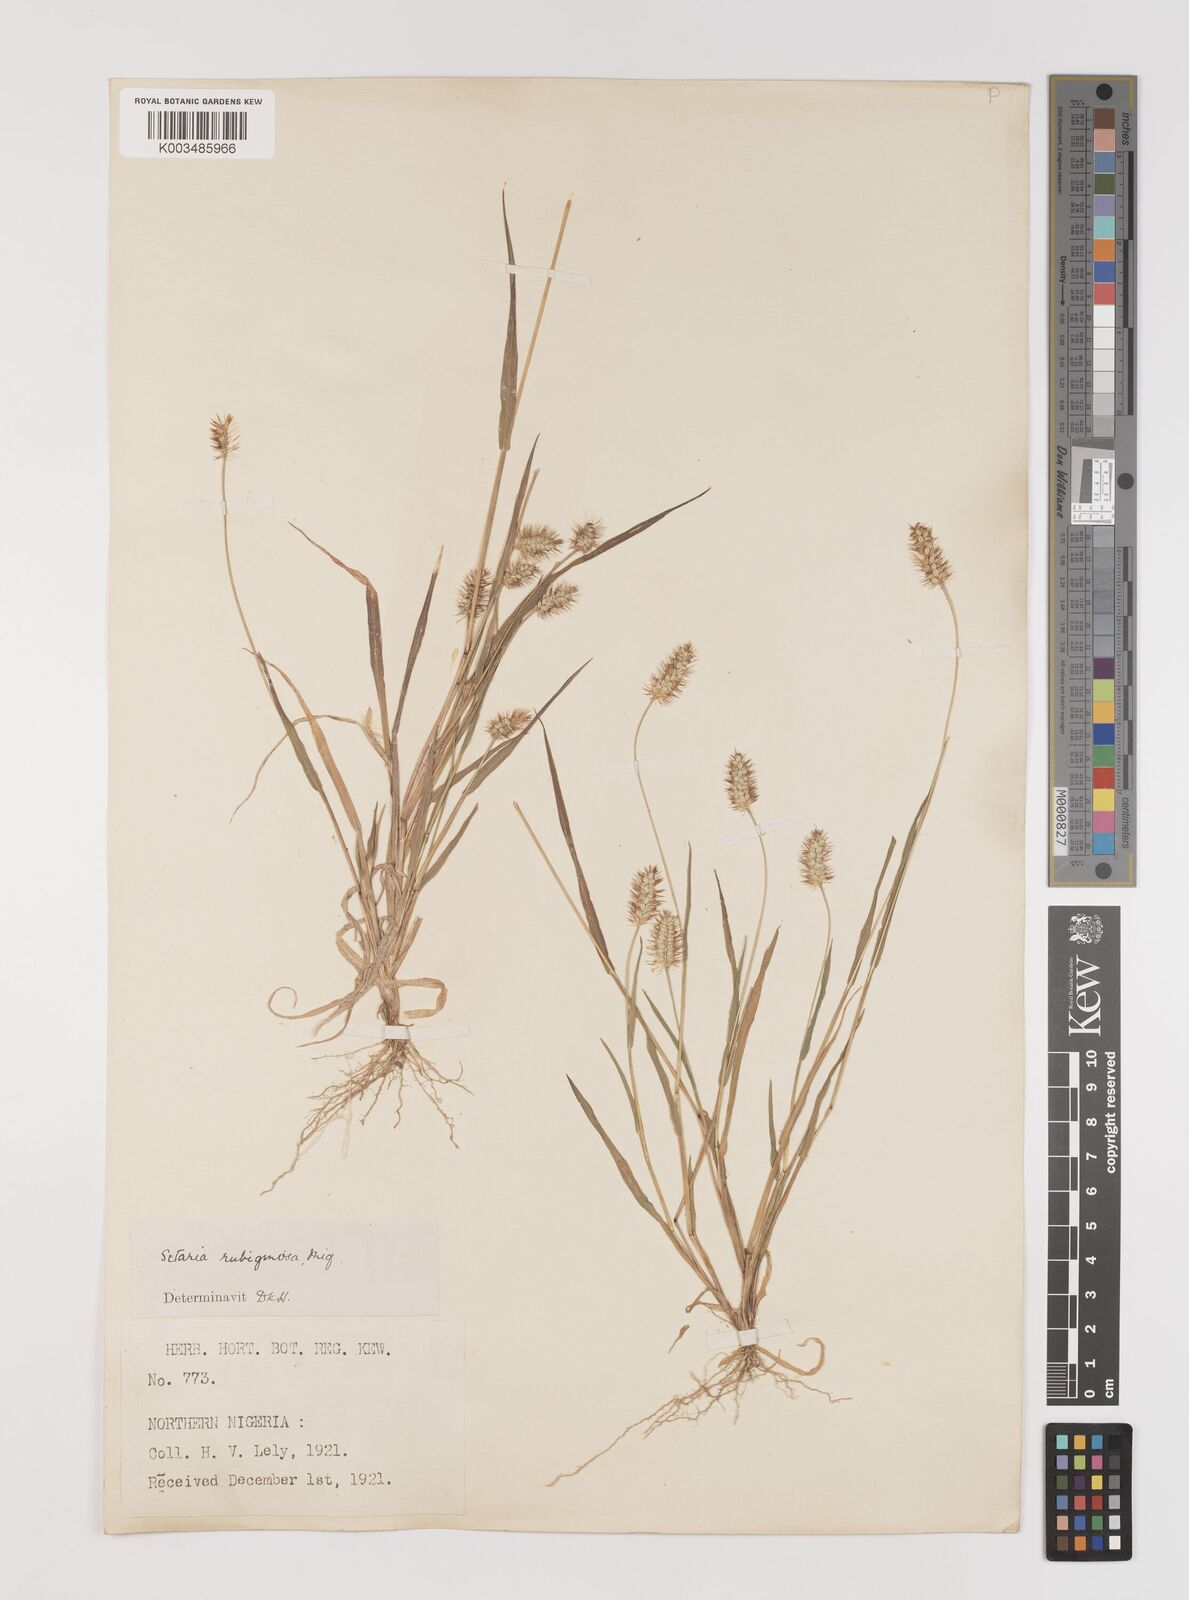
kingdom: Plantae
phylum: Tracheophyta
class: Liliopsida
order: Poales
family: Poaceae
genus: Setaria
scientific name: Setaria pumila
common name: Yellow bristle-grass
